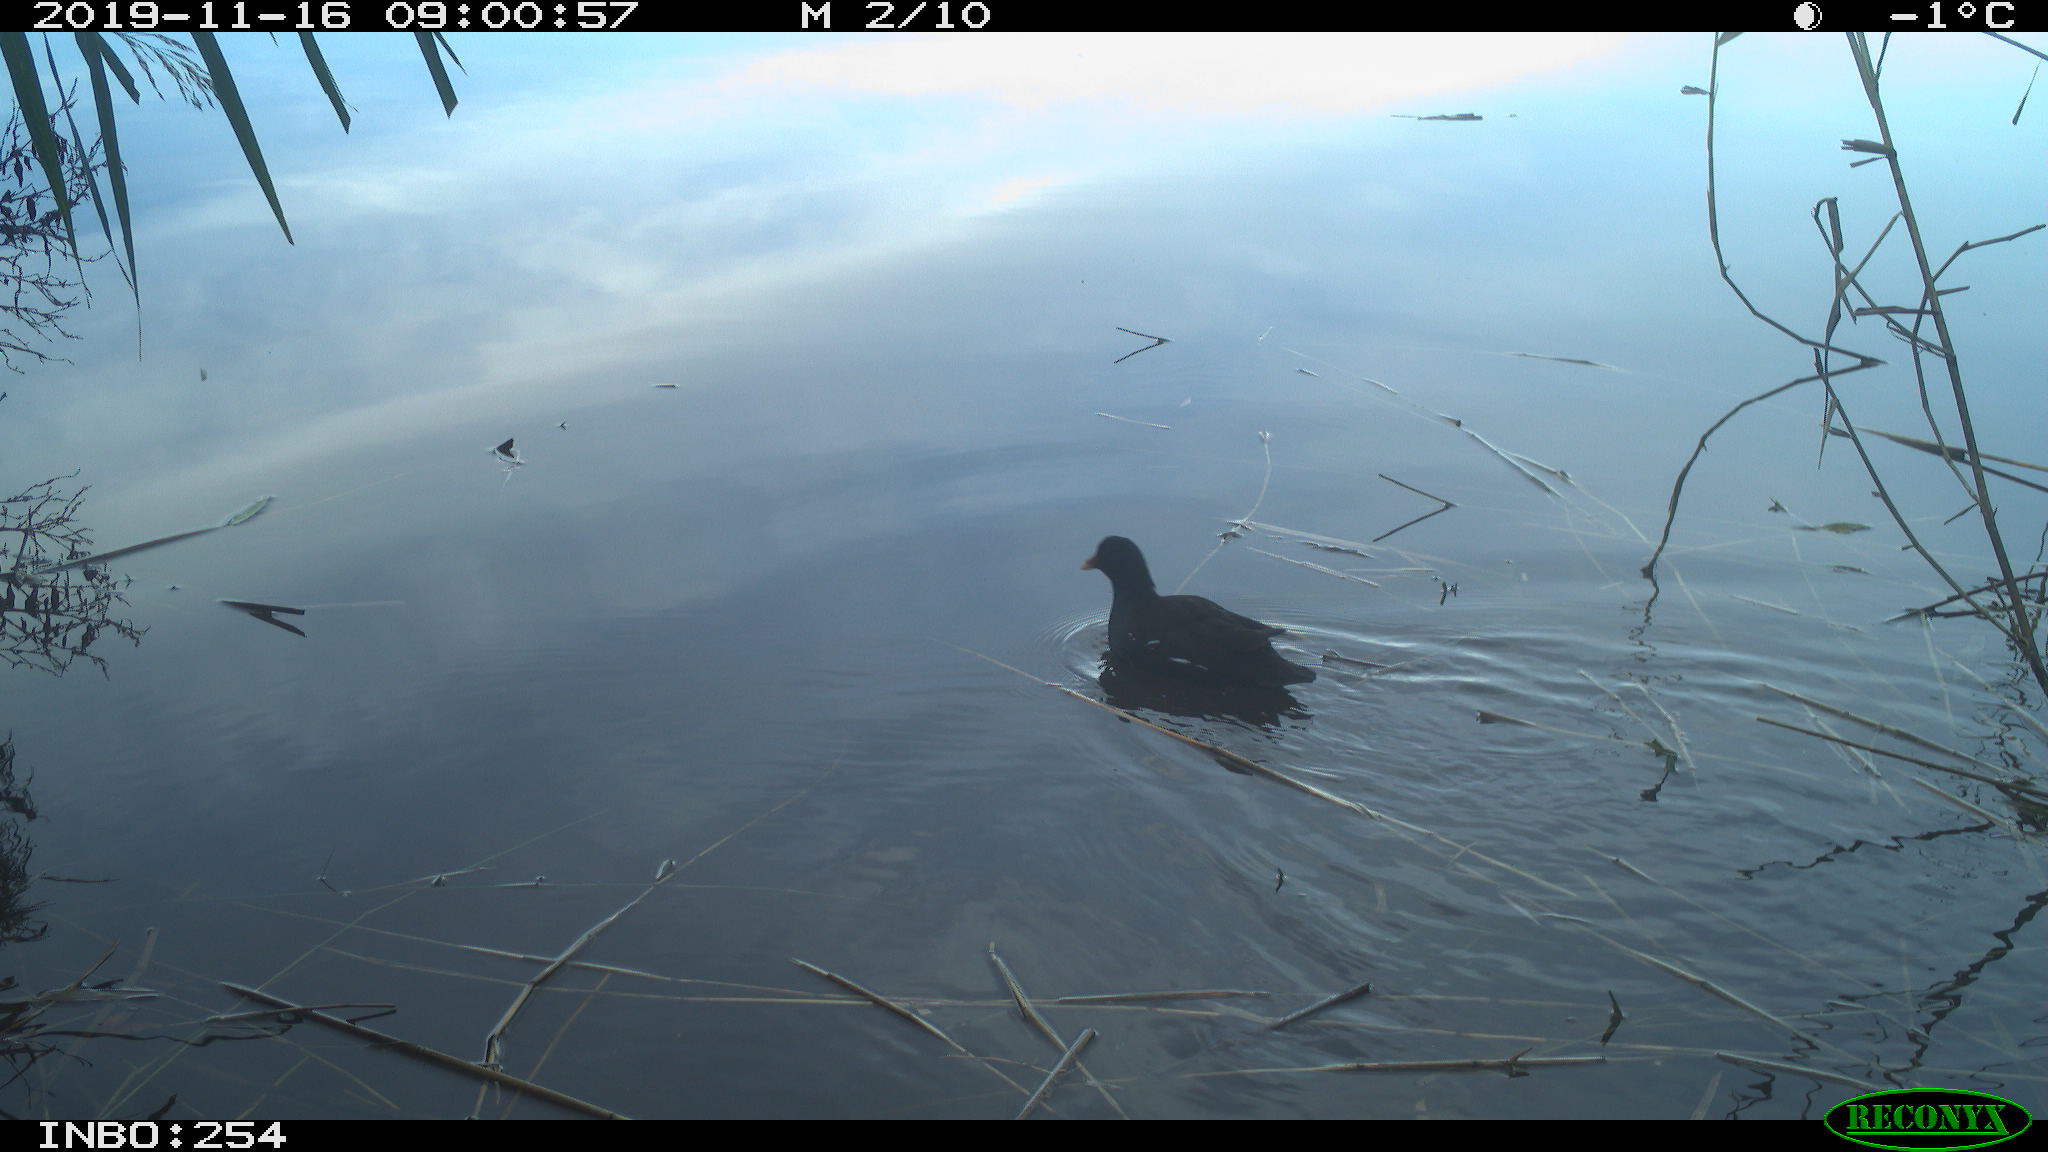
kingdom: Animalia
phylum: Chordata
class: Aves
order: Gruiformes
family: Rallidae
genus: Gallinula
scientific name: Gallinula chloropus
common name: Common moorhen
